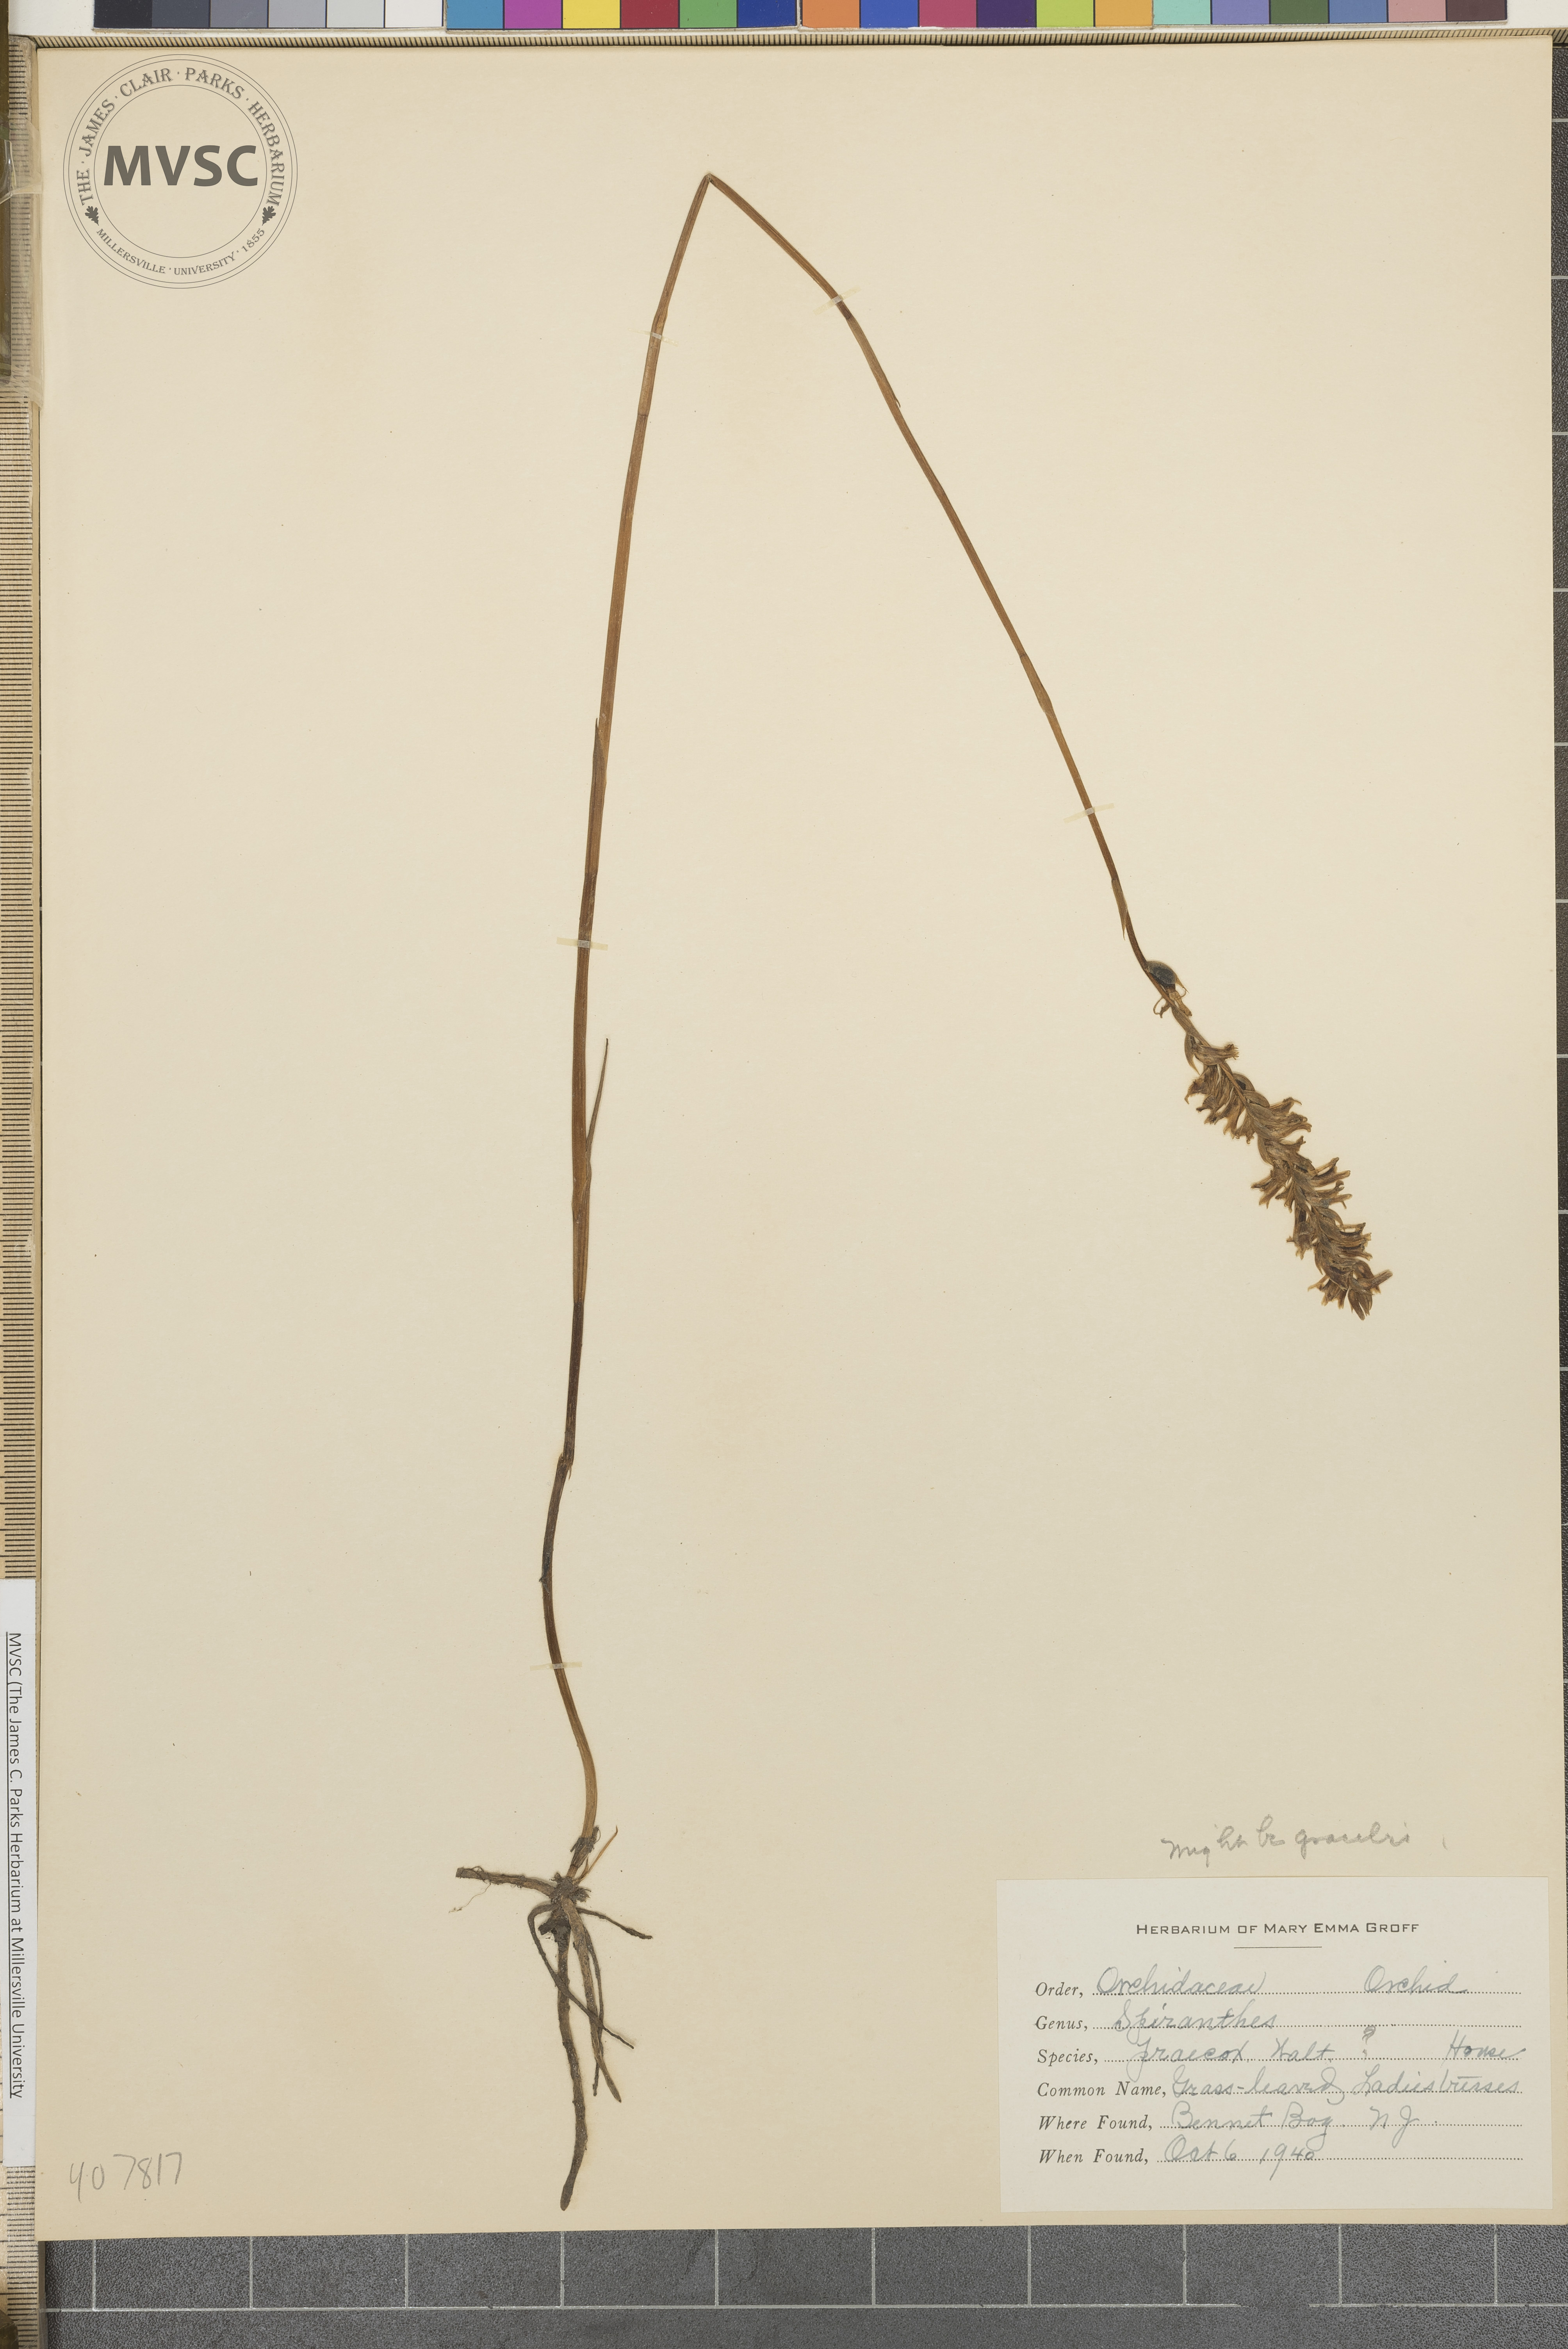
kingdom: Plantae
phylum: Tracheophyta
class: Liliopsida
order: Asparagales
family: Orchidaceae
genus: Spiranthes
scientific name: Spiranthes praecox
